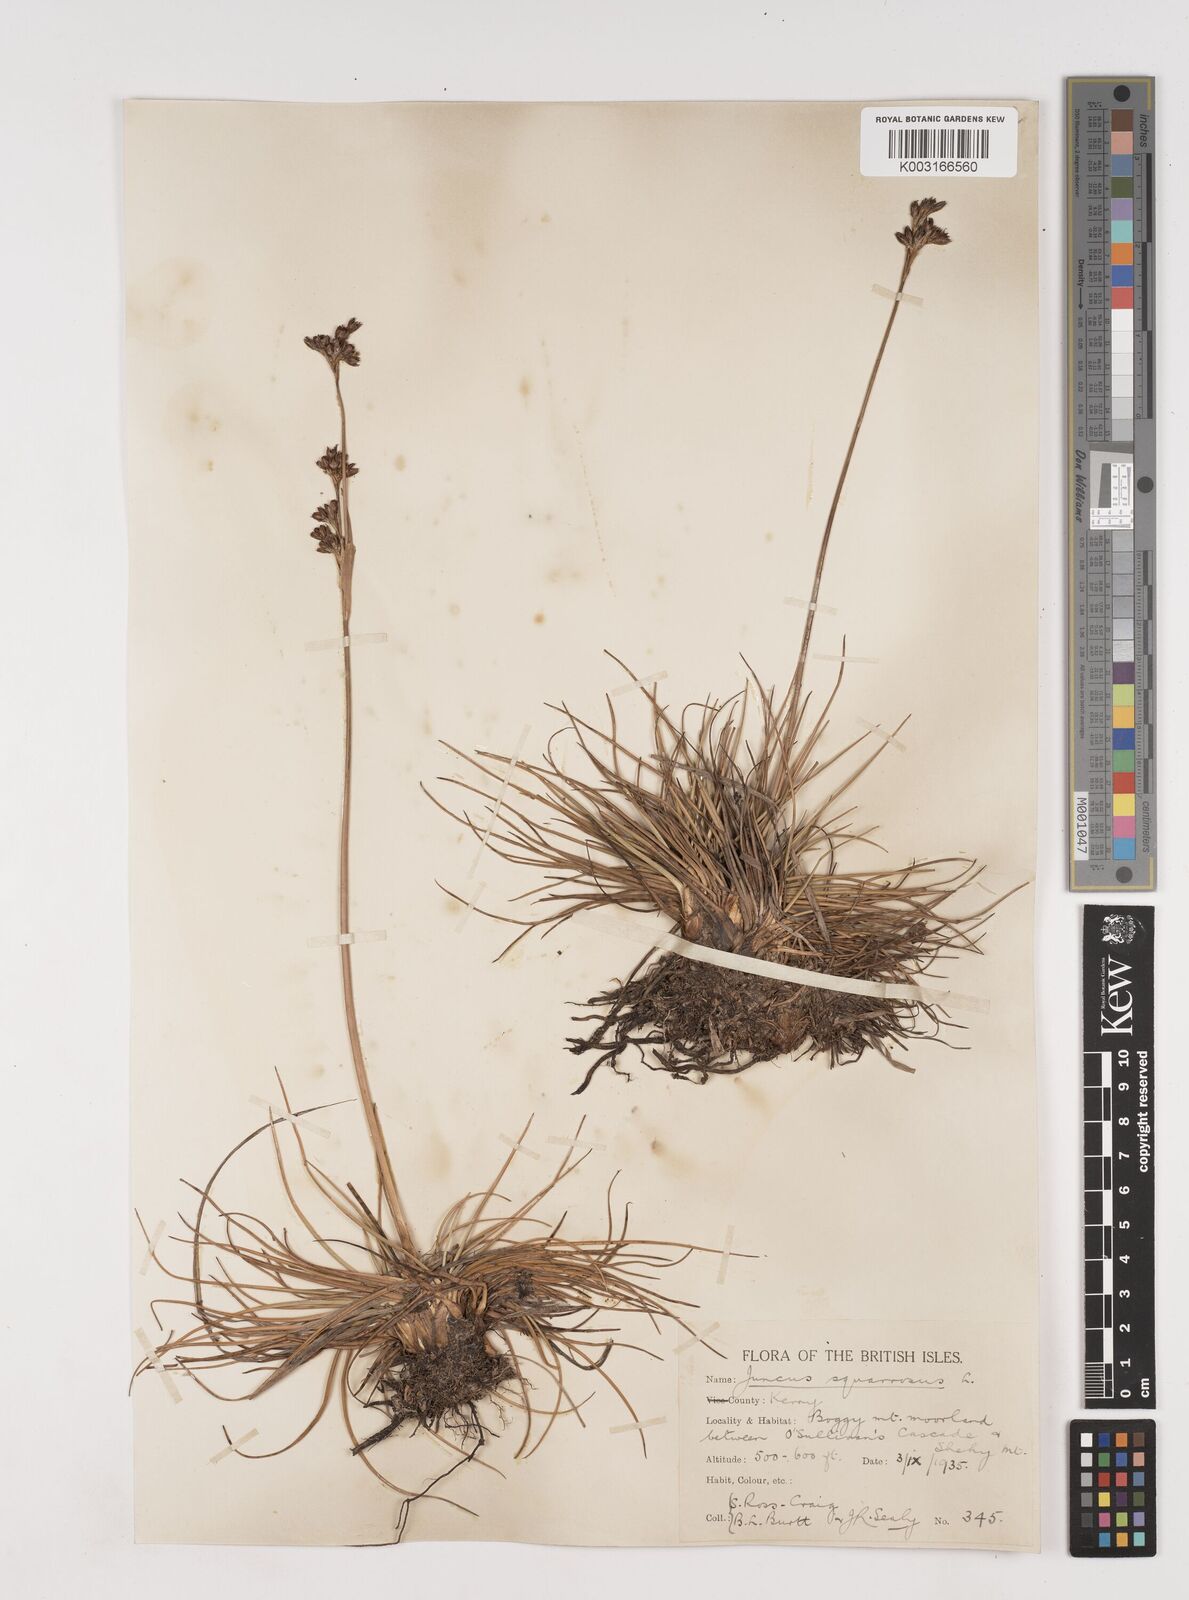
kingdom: Plantae
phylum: Tracheophyta
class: Liliopsida
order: Poales
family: Juncaceae
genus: Juncus
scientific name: Juncus squarrosus
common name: Heath rush
